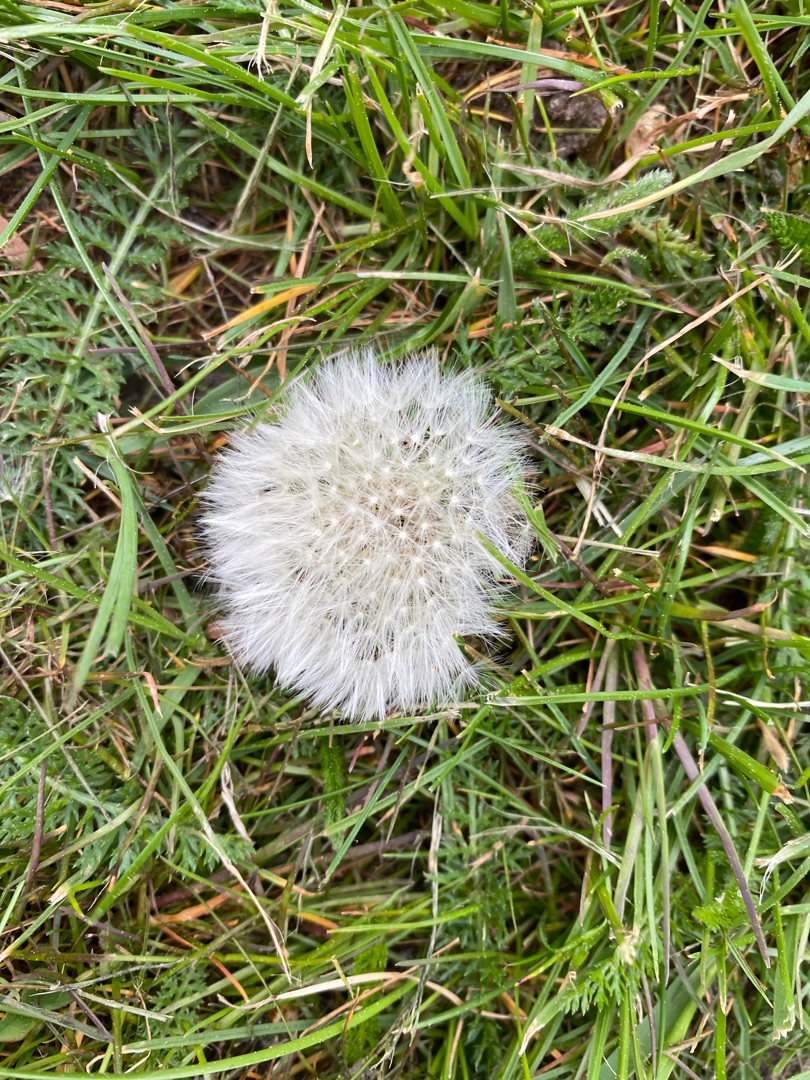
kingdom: Plantae
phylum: Tracheophyta
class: Magnoliopsida
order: Asterales
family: Asteraceae
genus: Taraxacum
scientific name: Taraxacum
